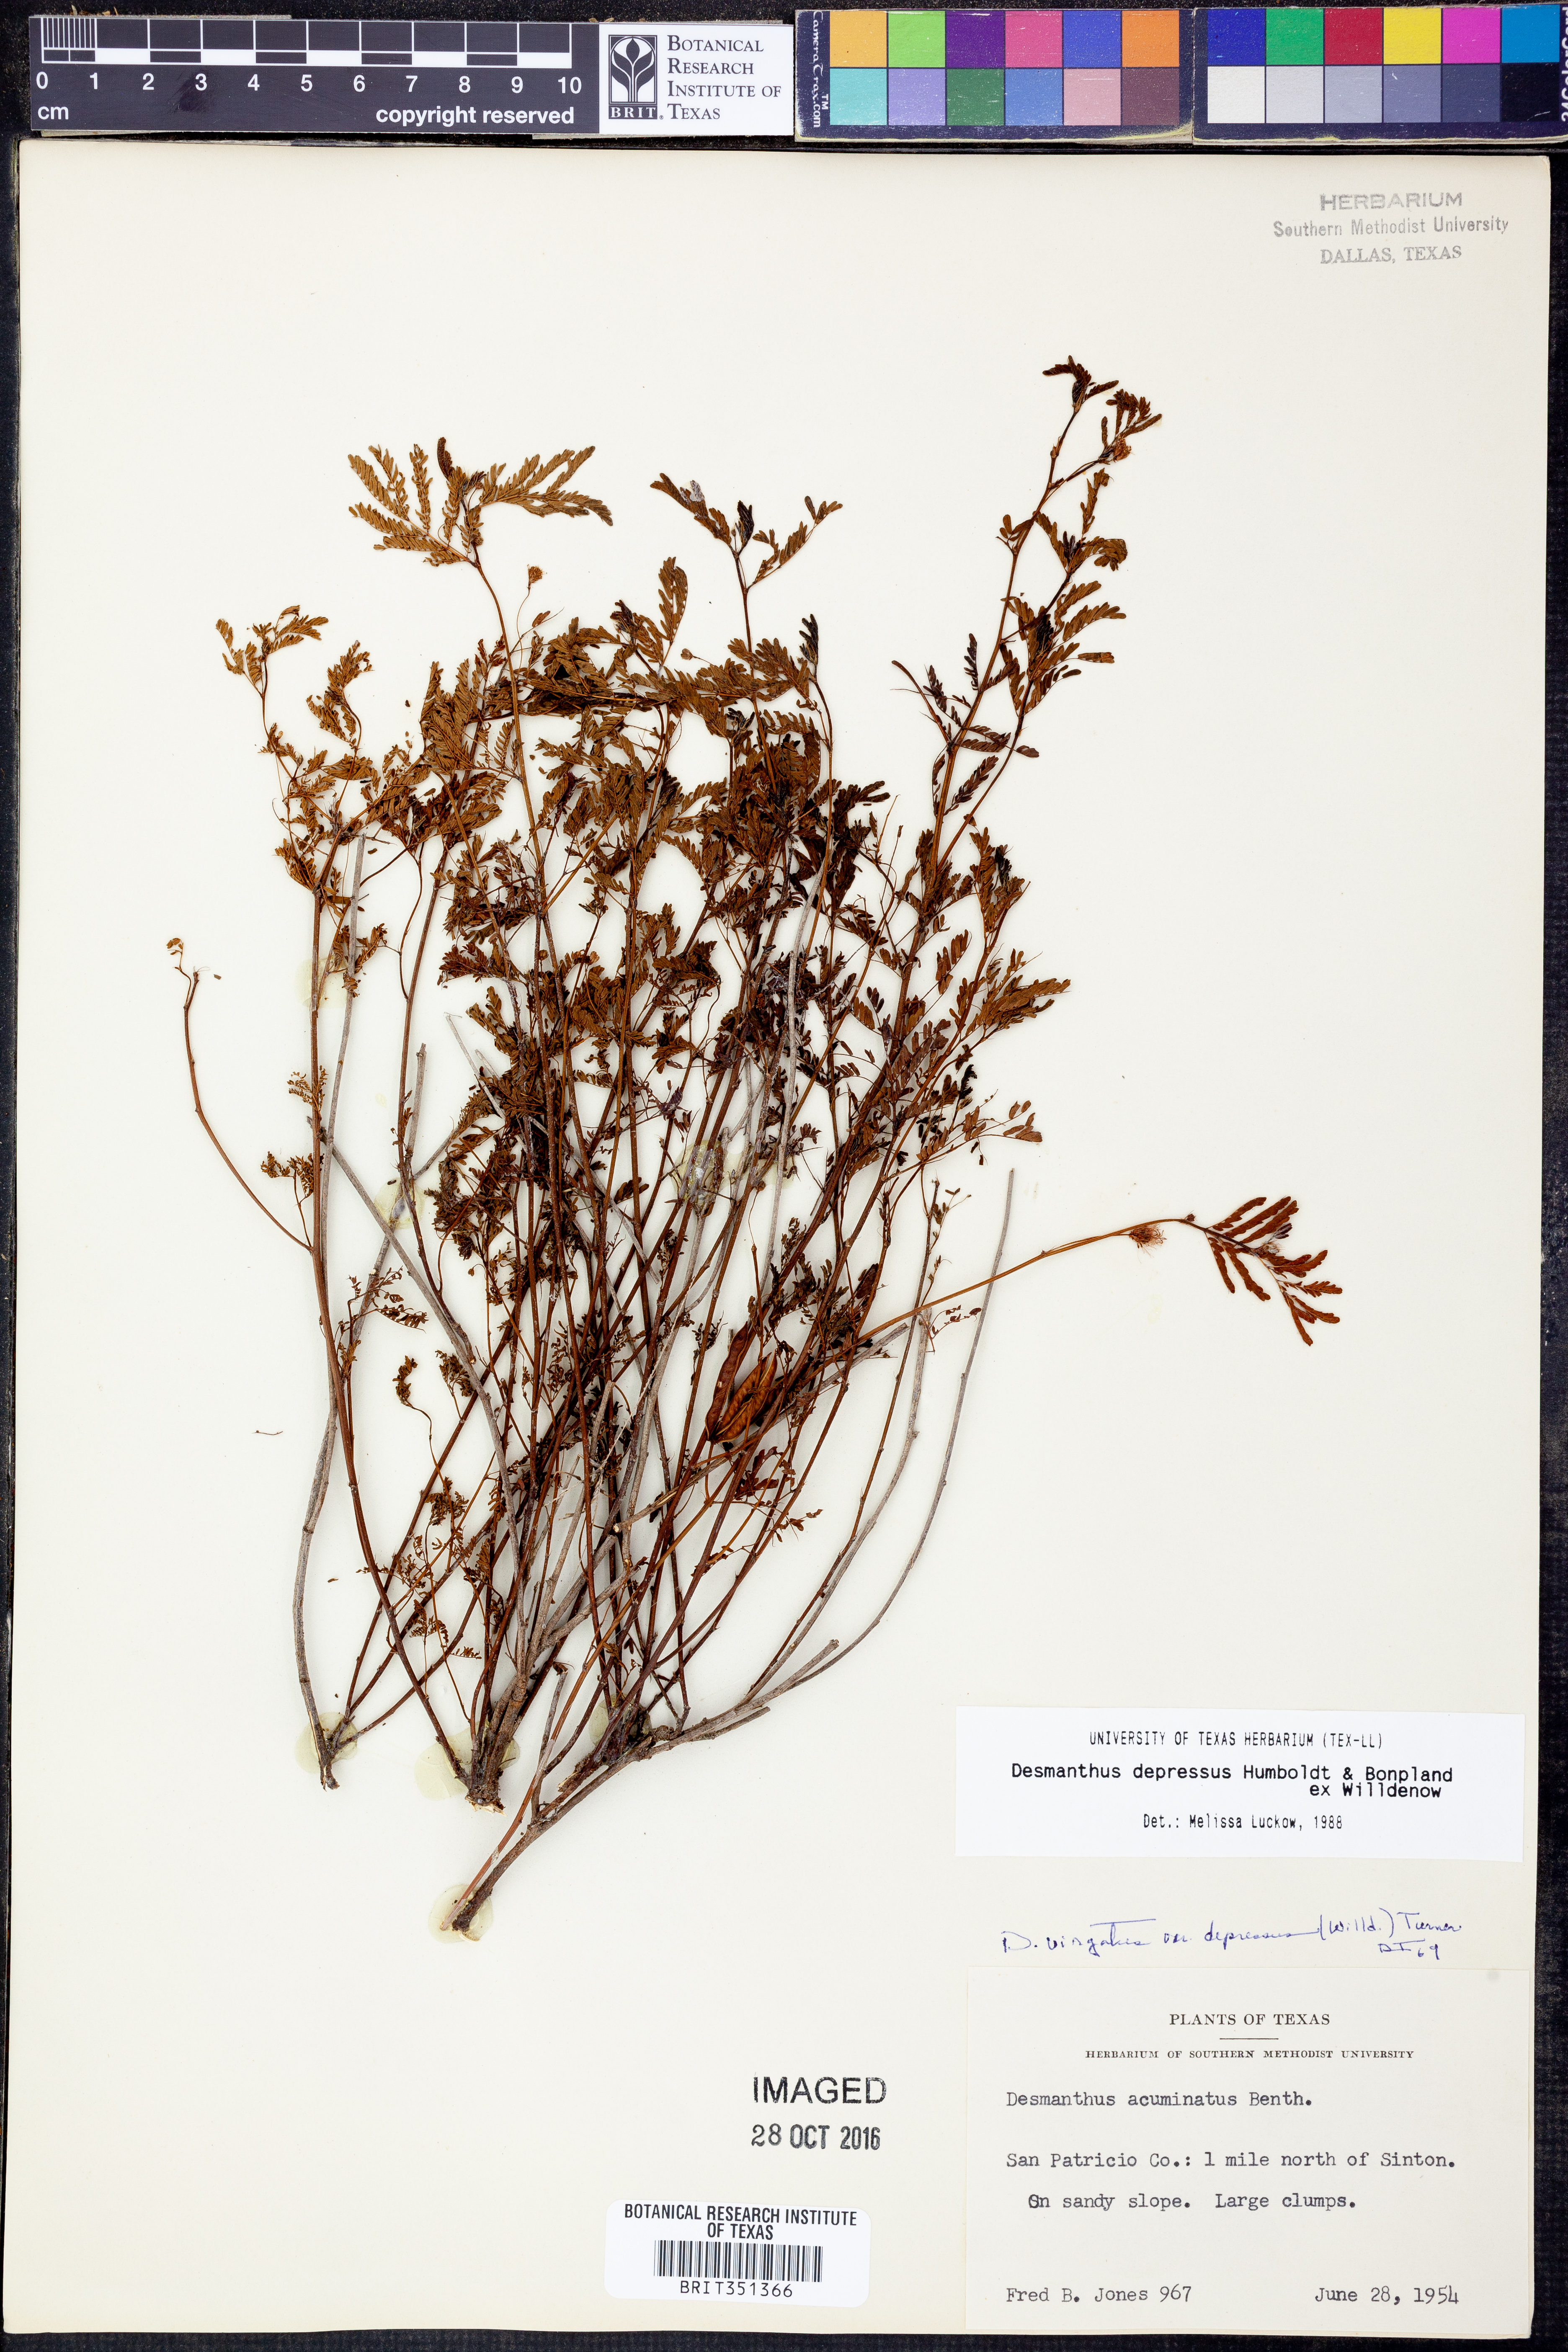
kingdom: Plantae
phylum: Tracheophyta
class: Magnoliopsida
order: Fabales
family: Fabaceae
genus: Desmanthus
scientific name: Desmanthus virgatus
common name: Wild tantan
